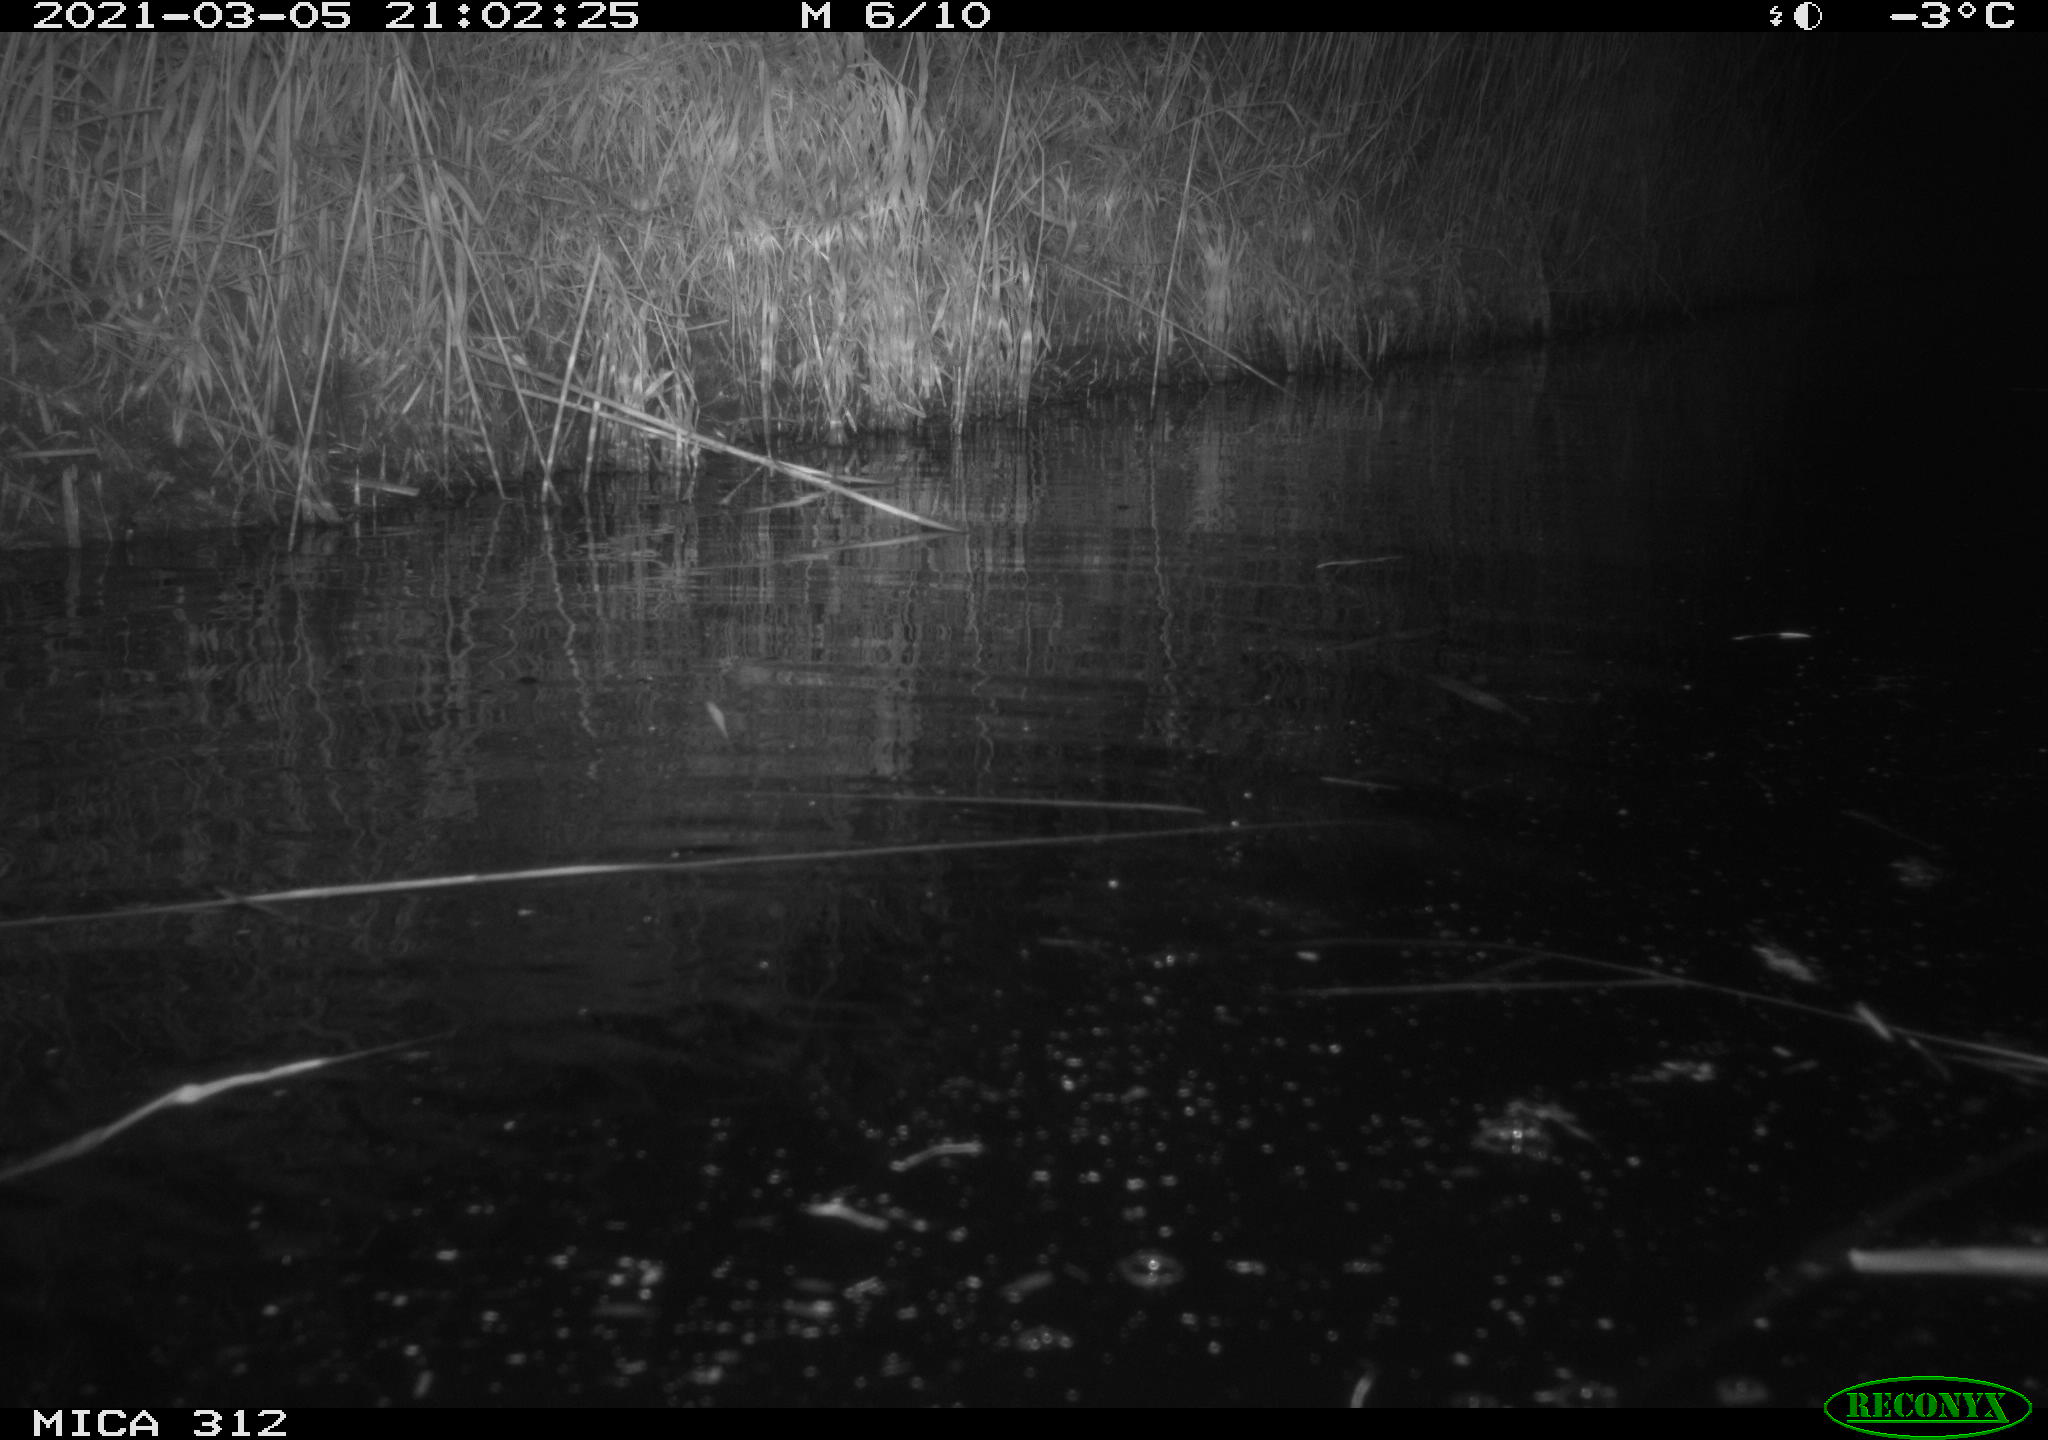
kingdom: Animalia
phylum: Chordata
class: Mammalia
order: Rodentia
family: Cricetidae
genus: Ondatra
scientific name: Ondatra zibethicus
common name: Muskrat
